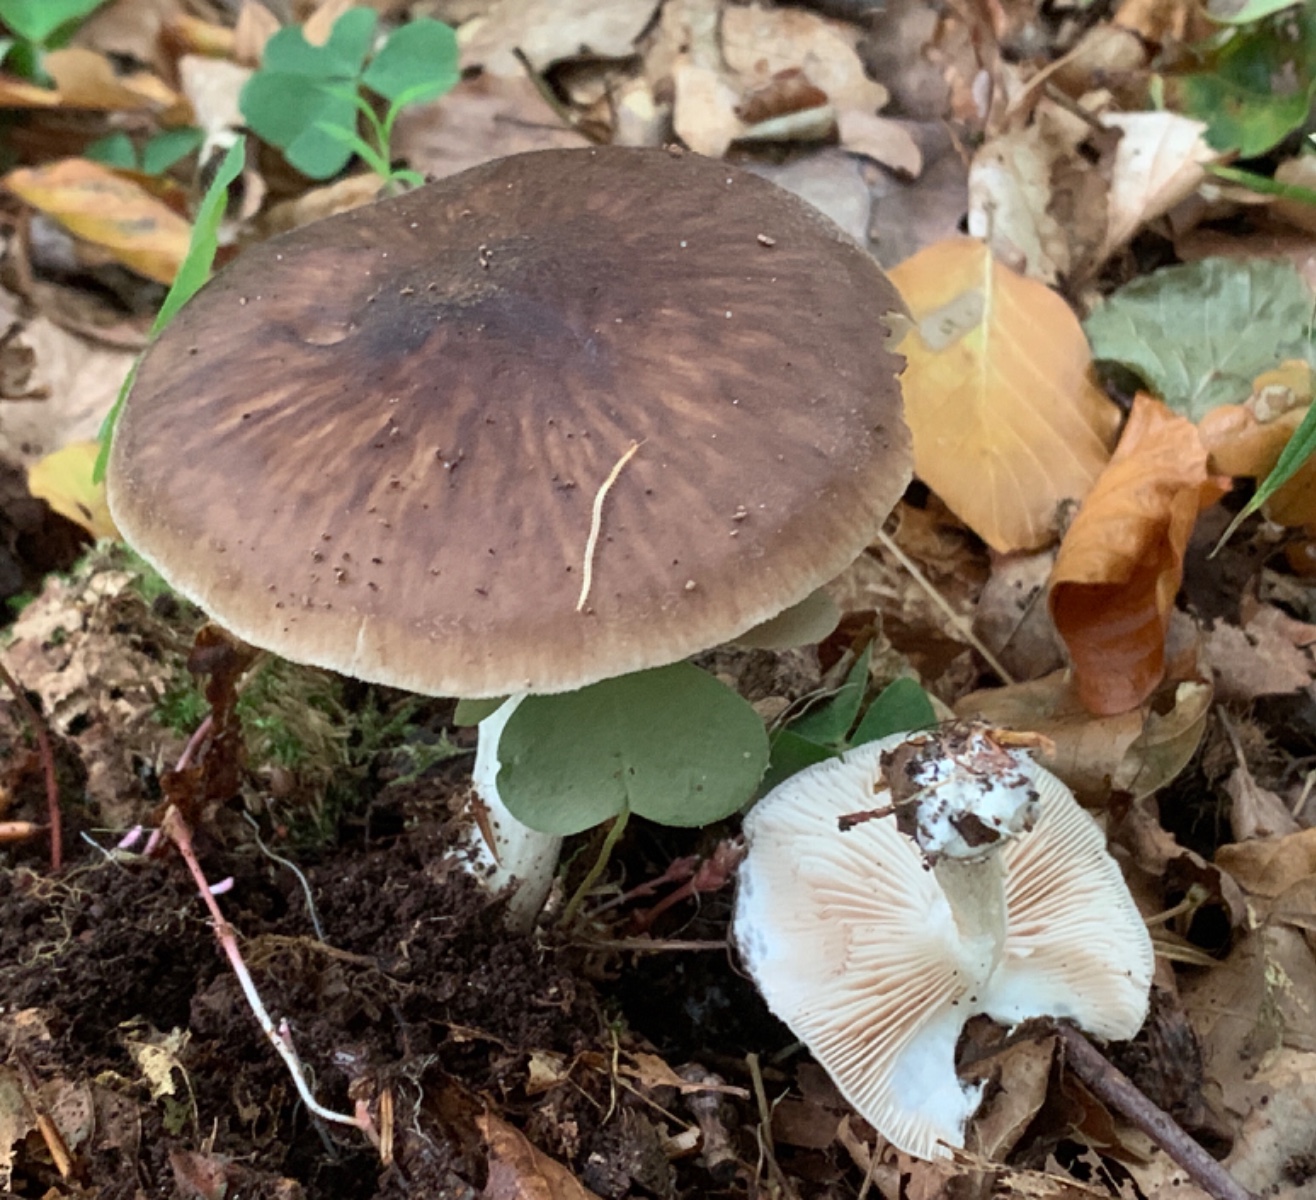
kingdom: Fungi
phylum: Basidiomycota
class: Agaricomycetes
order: Agaricales
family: Pluteaceae
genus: Pluteus
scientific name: Pluteus cervinus
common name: sodfarvet skærmhat
